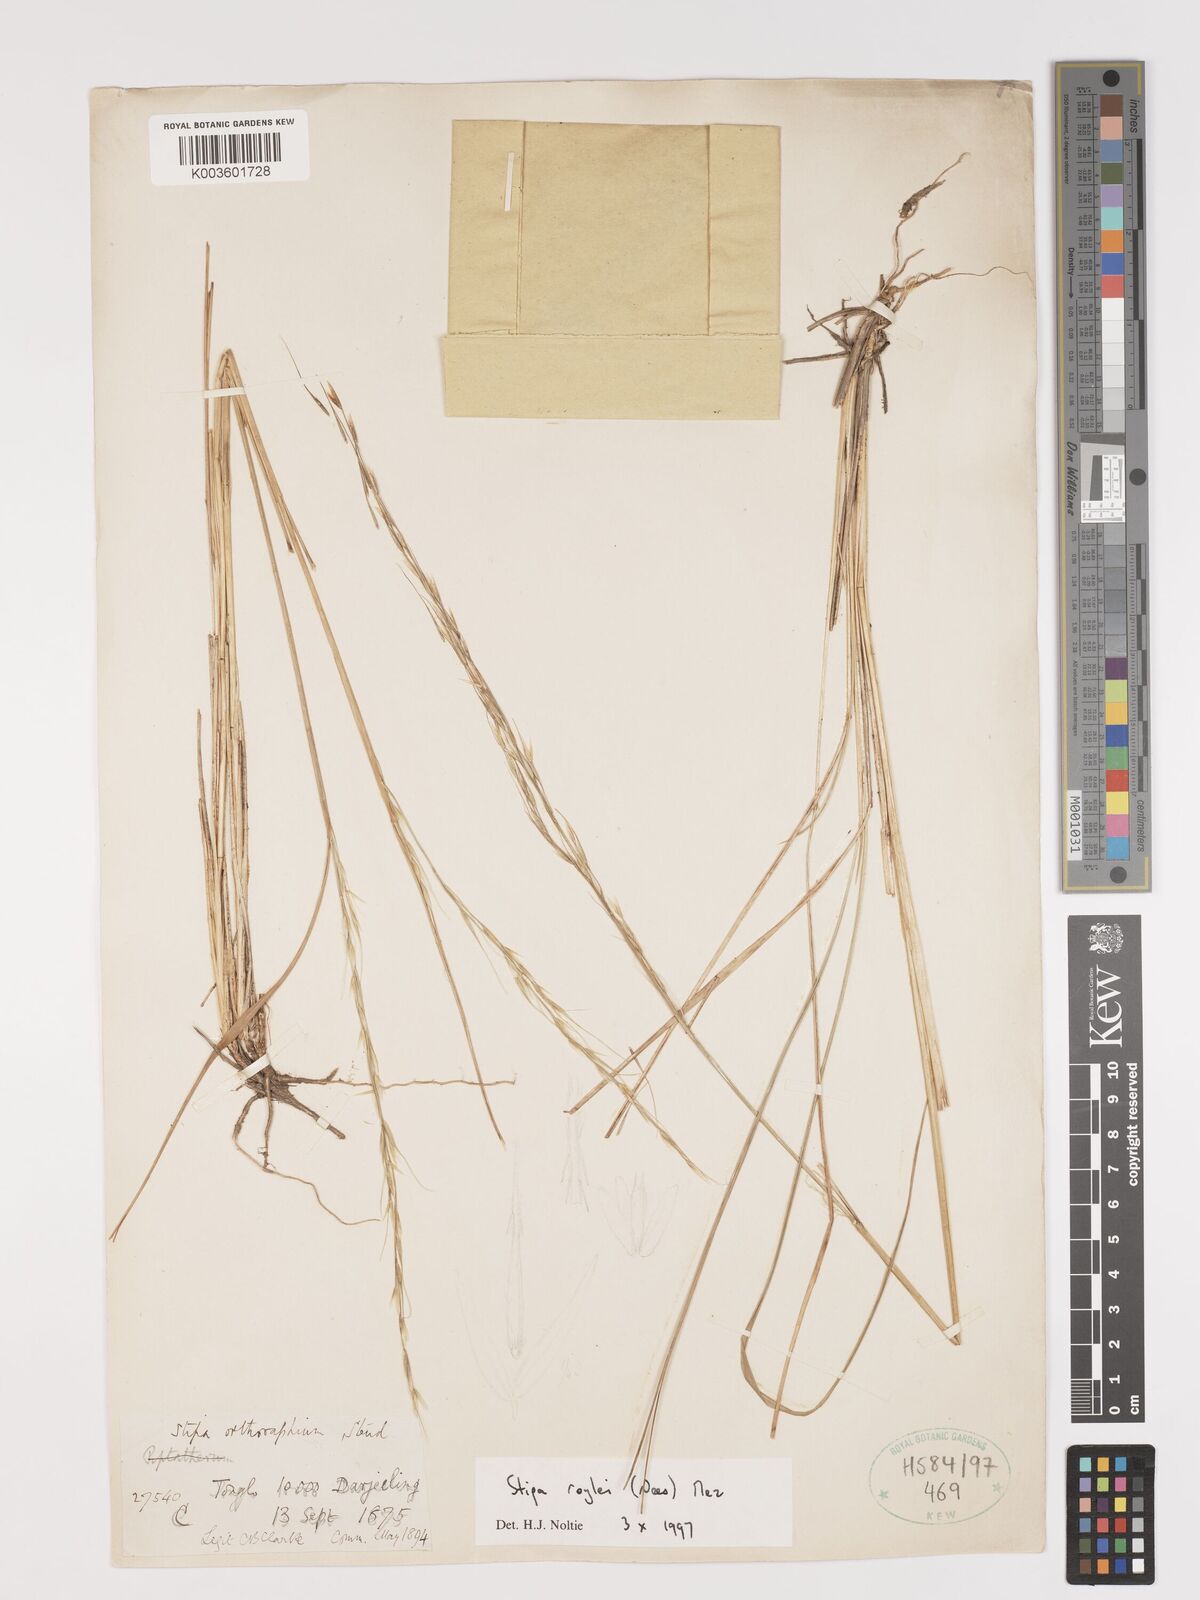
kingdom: Plantae
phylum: Tracheophyta
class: Liliopsida
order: Poales
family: Poaceae
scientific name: Poaceae
